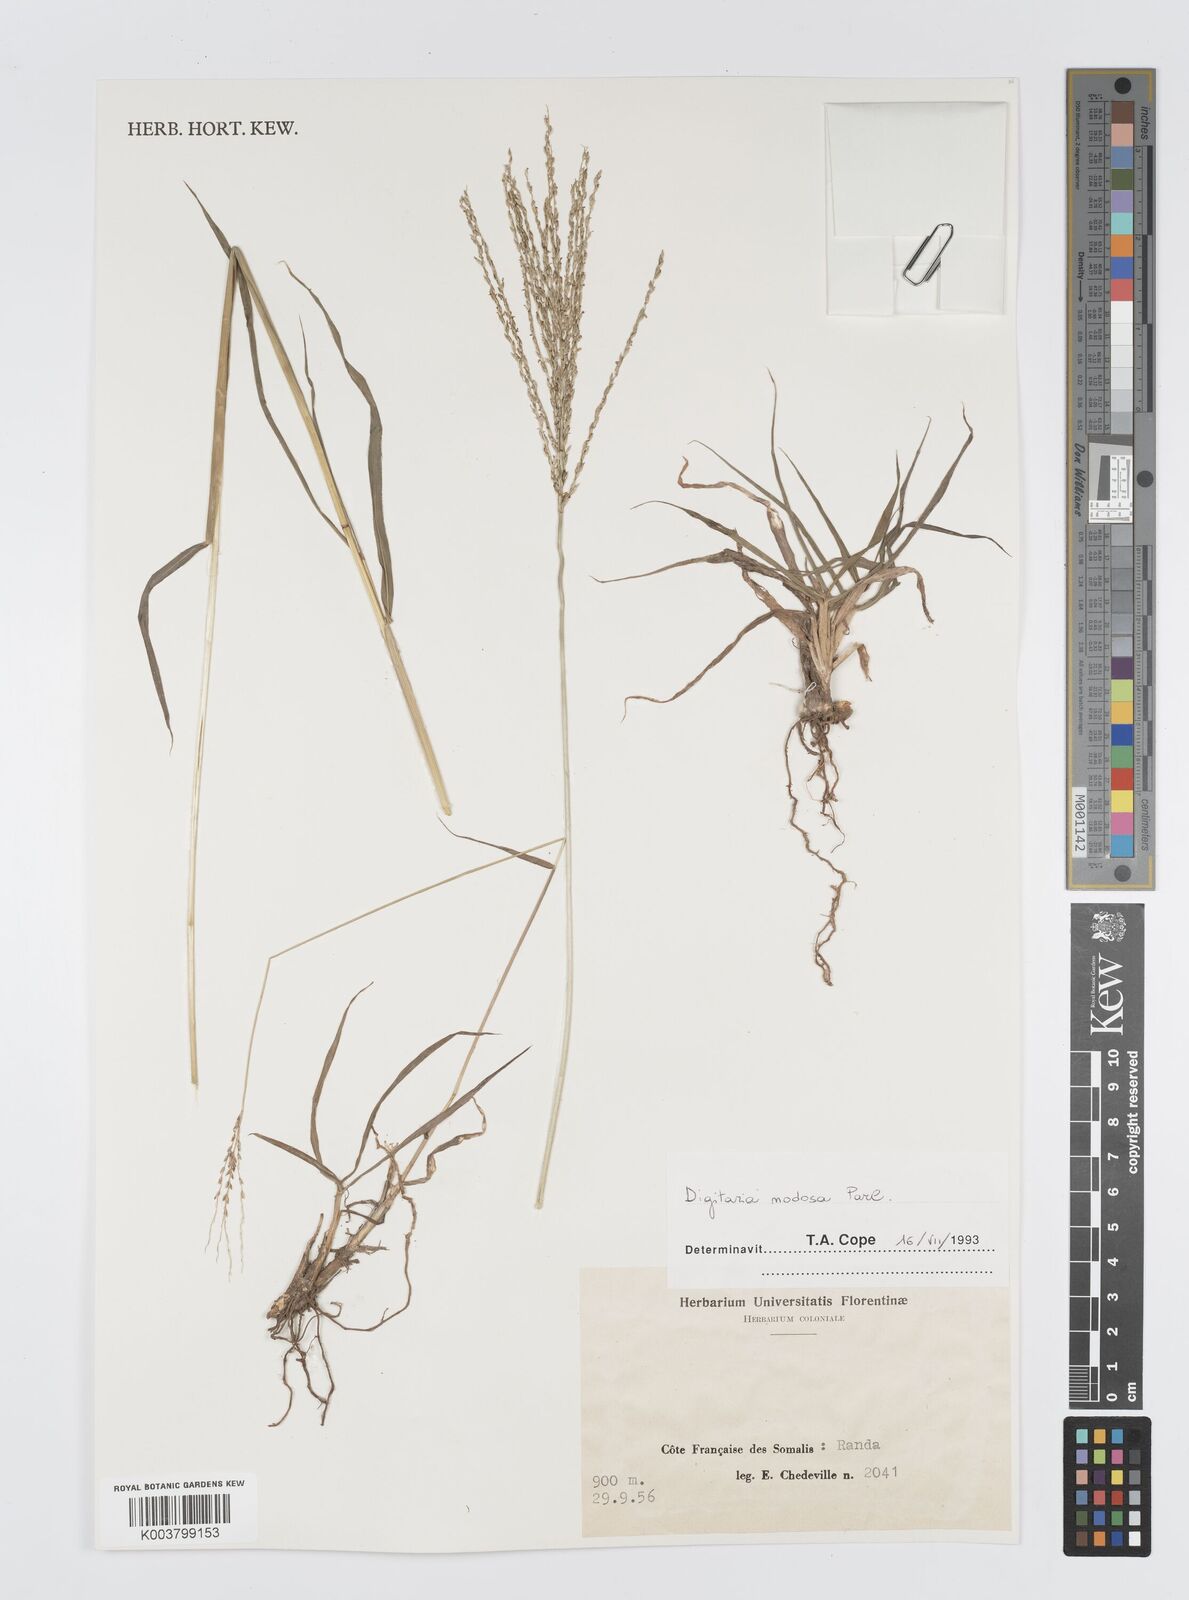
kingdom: Plantae
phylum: Tracheophyta
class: Liliopsida
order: Poales
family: Poaceae
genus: Digitaria
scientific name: Digitaria nodosa
